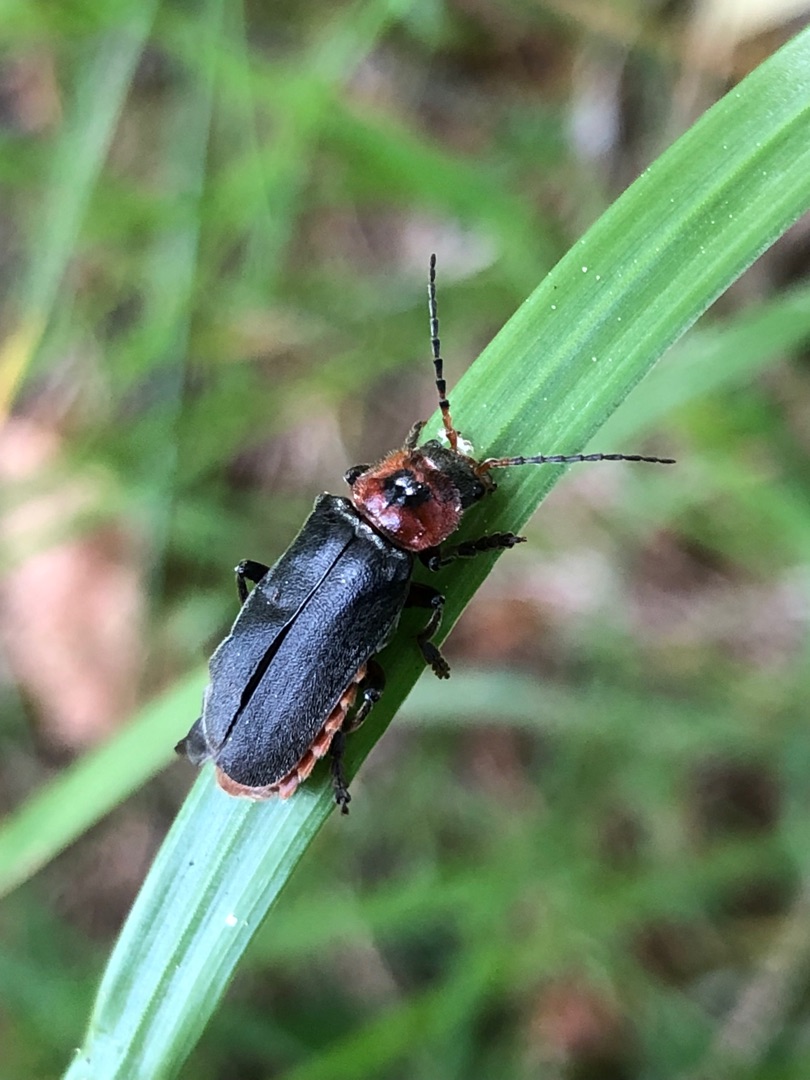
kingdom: Animalia
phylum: Arthropoda
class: Insecta
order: Coleoptera
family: Cantharidae
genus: Cantharis
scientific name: Cantharis rustica
